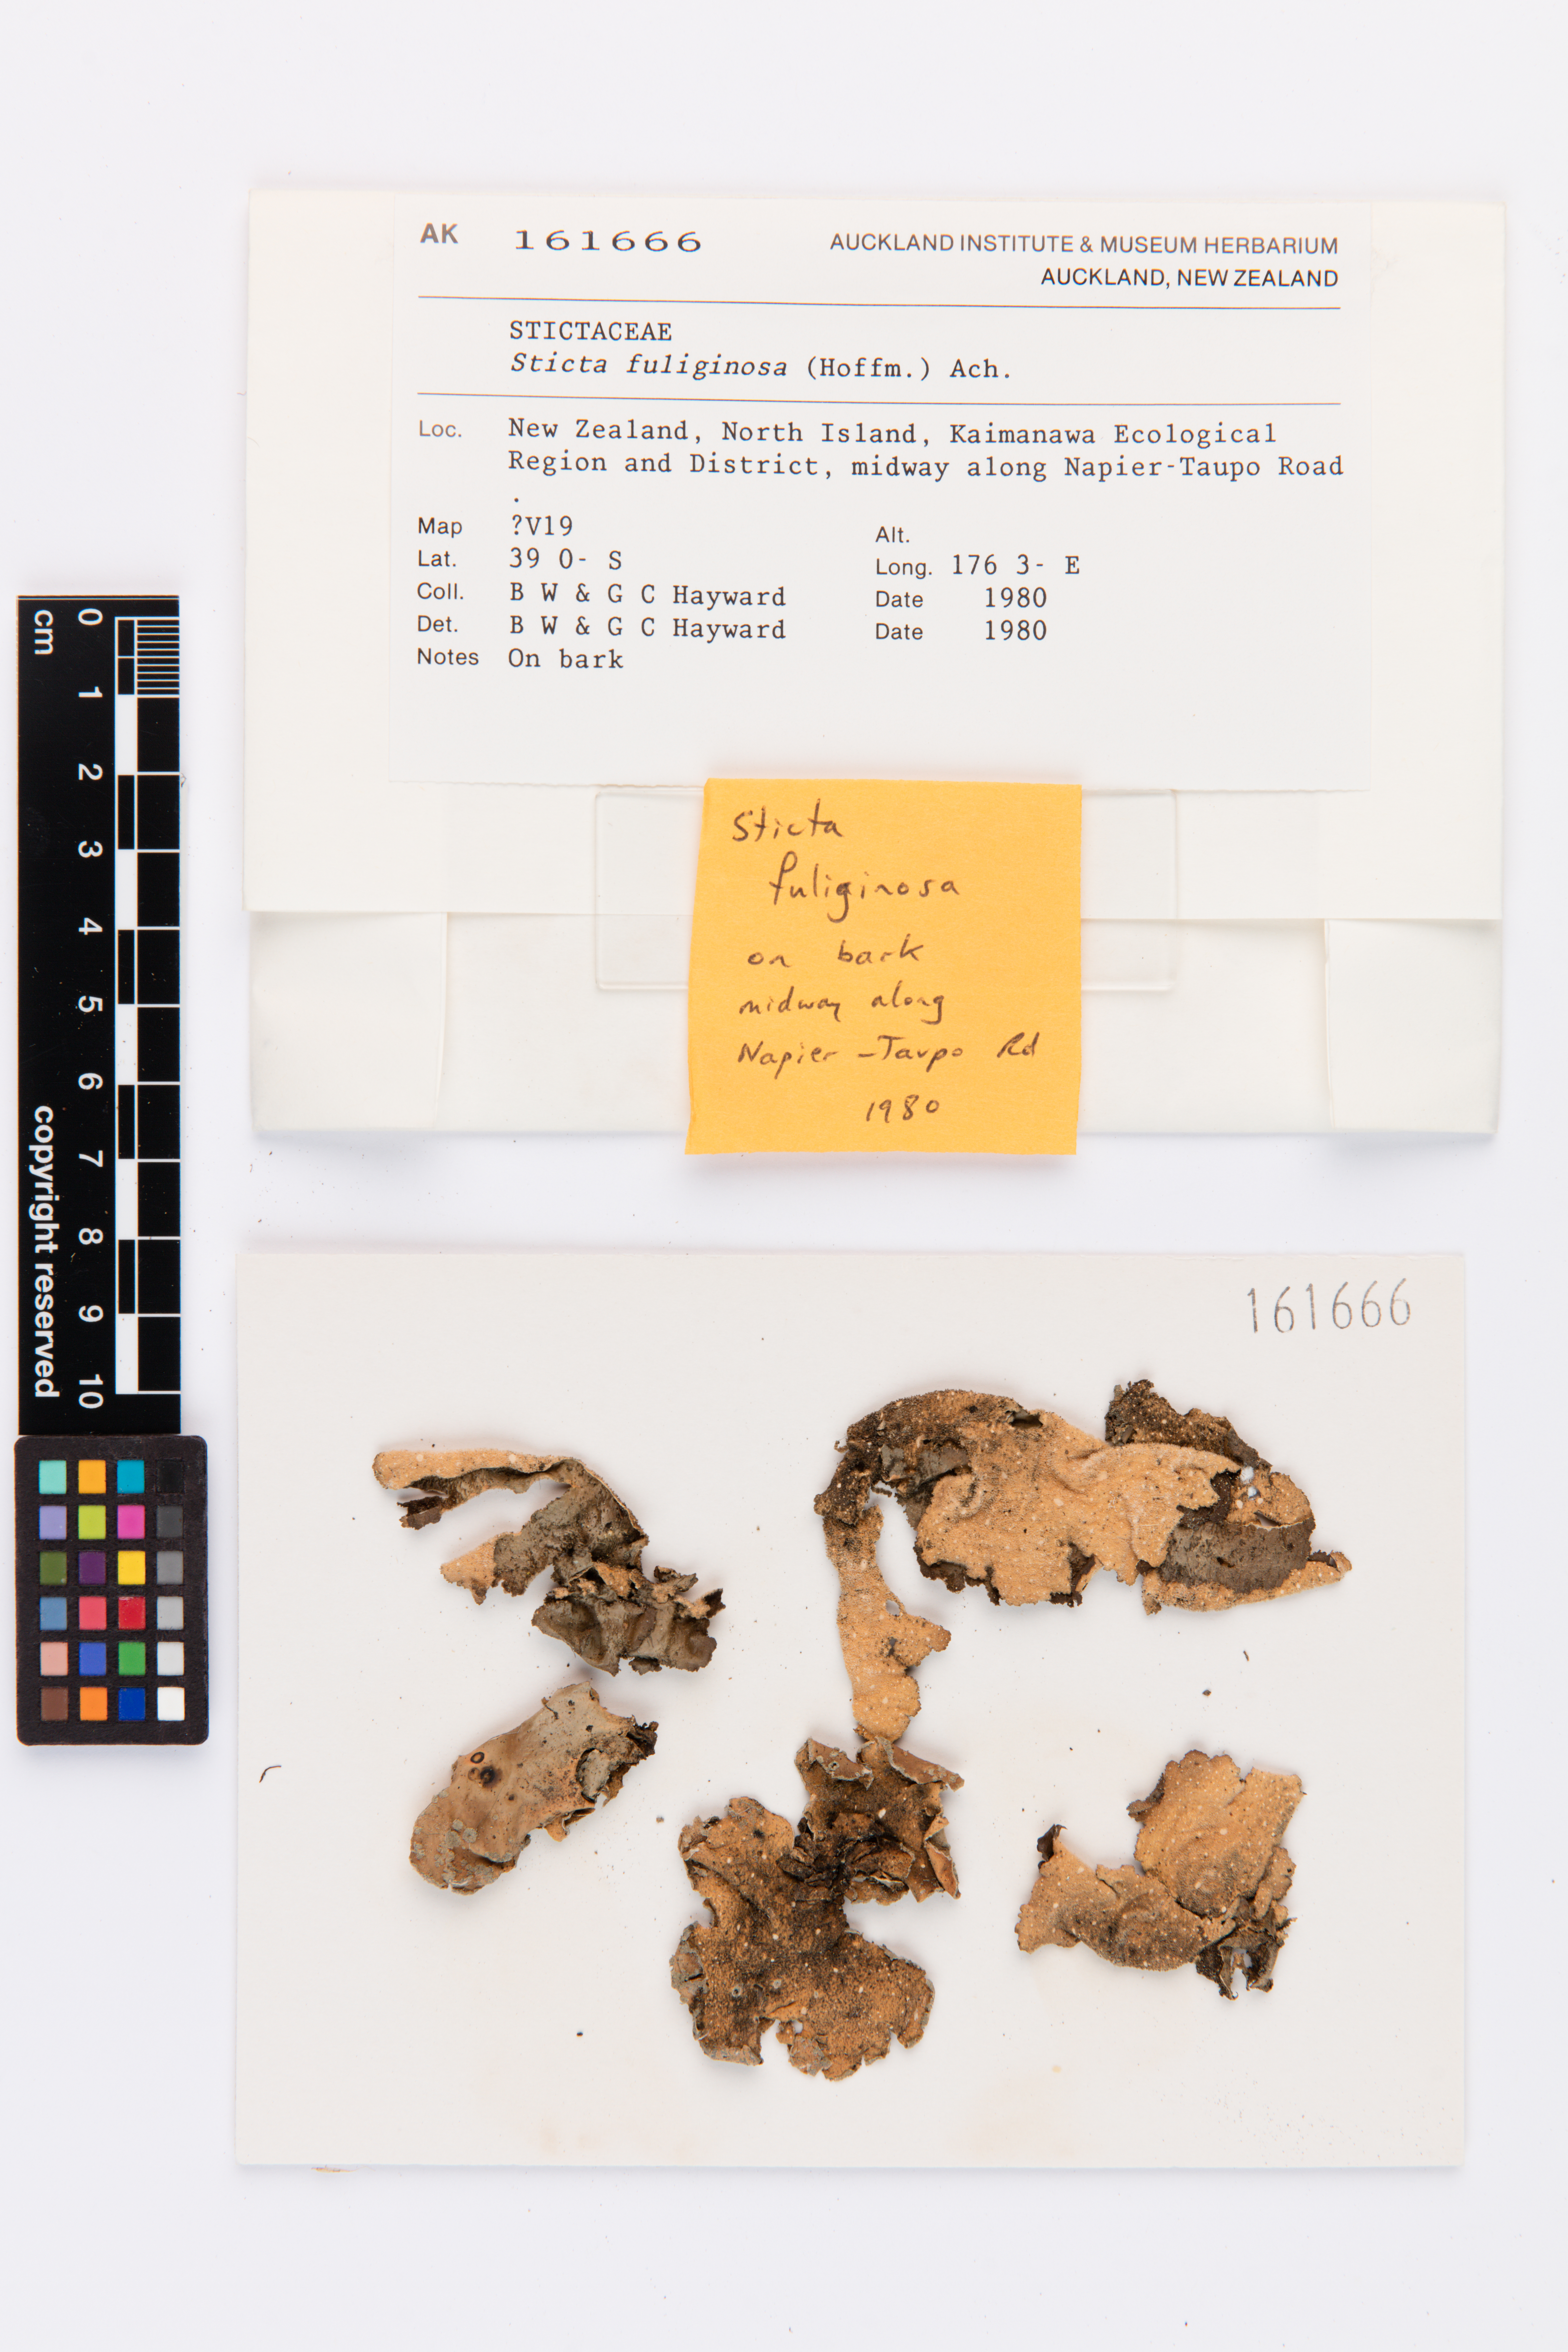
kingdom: Fungi
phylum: Ascomycota
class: Lecanoromycetes
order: Peltigerales
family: Lobariaceae
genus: Sticta
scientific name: Sticta fuliginosa
